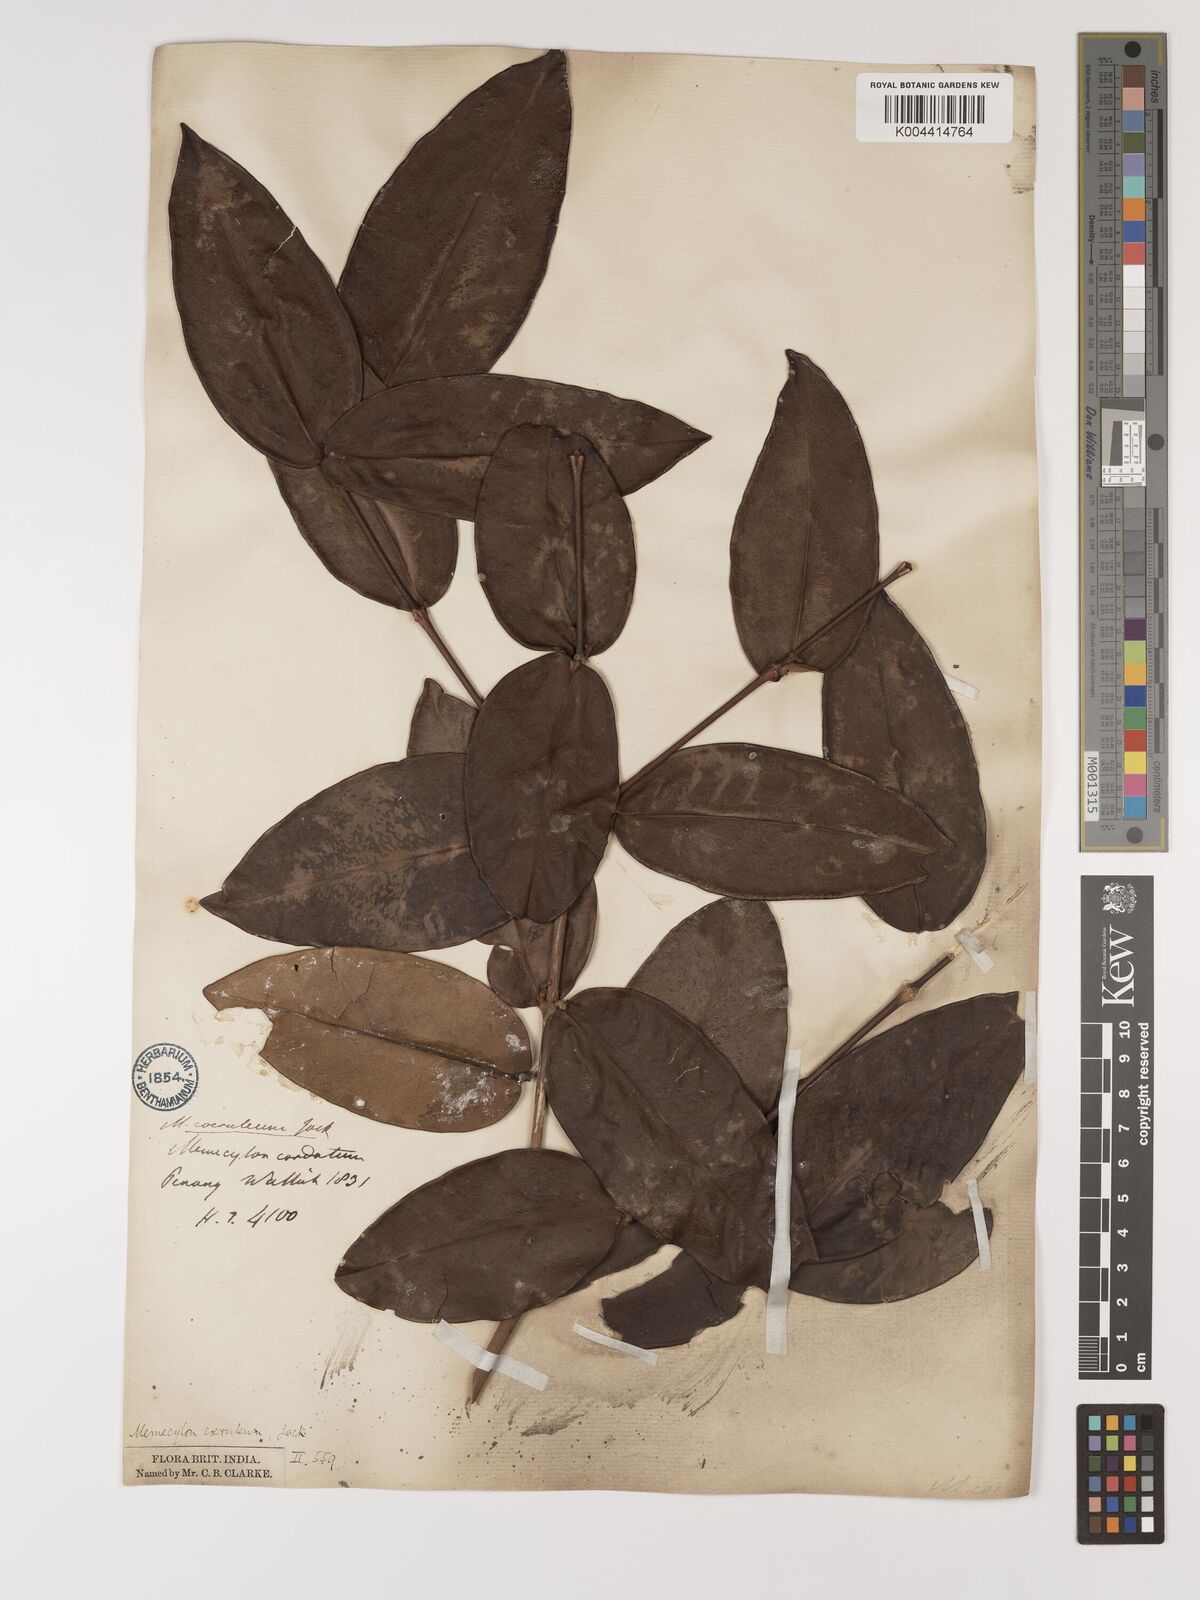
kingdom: Plantae
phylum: Tracheophyta
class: Magnoliopsida
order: Myrtales
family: Melastomataceae
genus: Memecylon
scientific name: Memecylon
